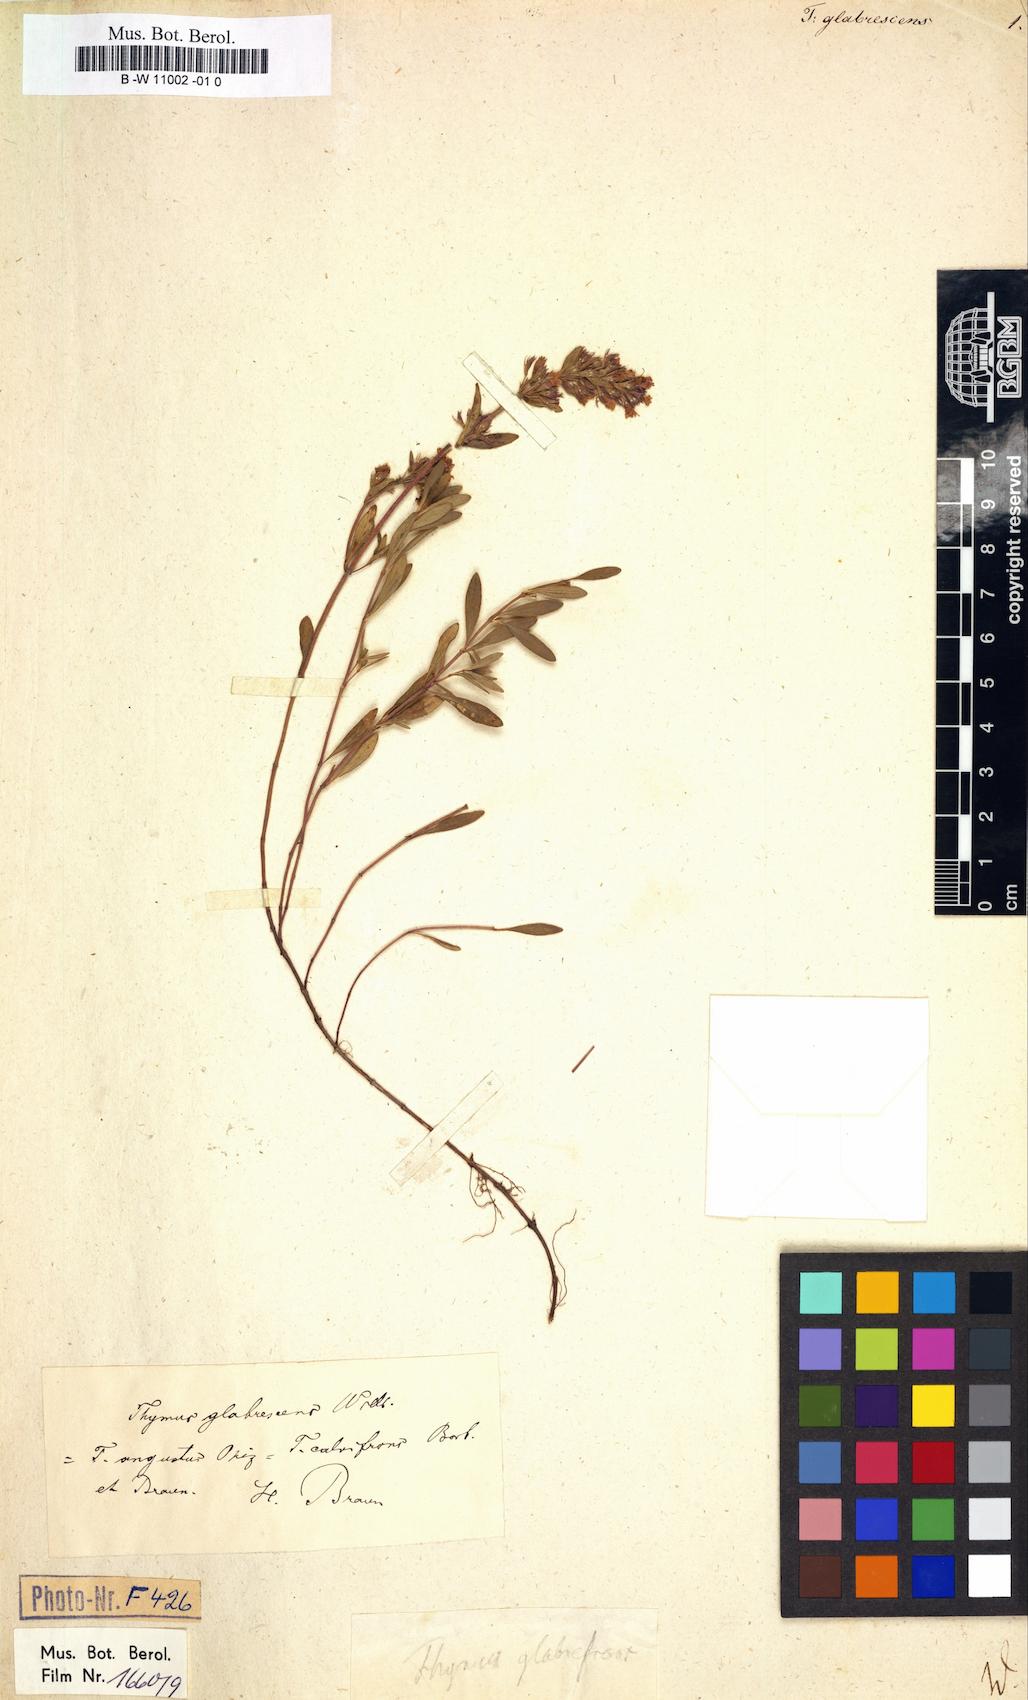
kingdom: Plantae
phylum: Tracheophyta
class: Magnoliopsida
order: Lamiales
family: Lamiaceae
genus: Thymus
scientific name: Thymus
